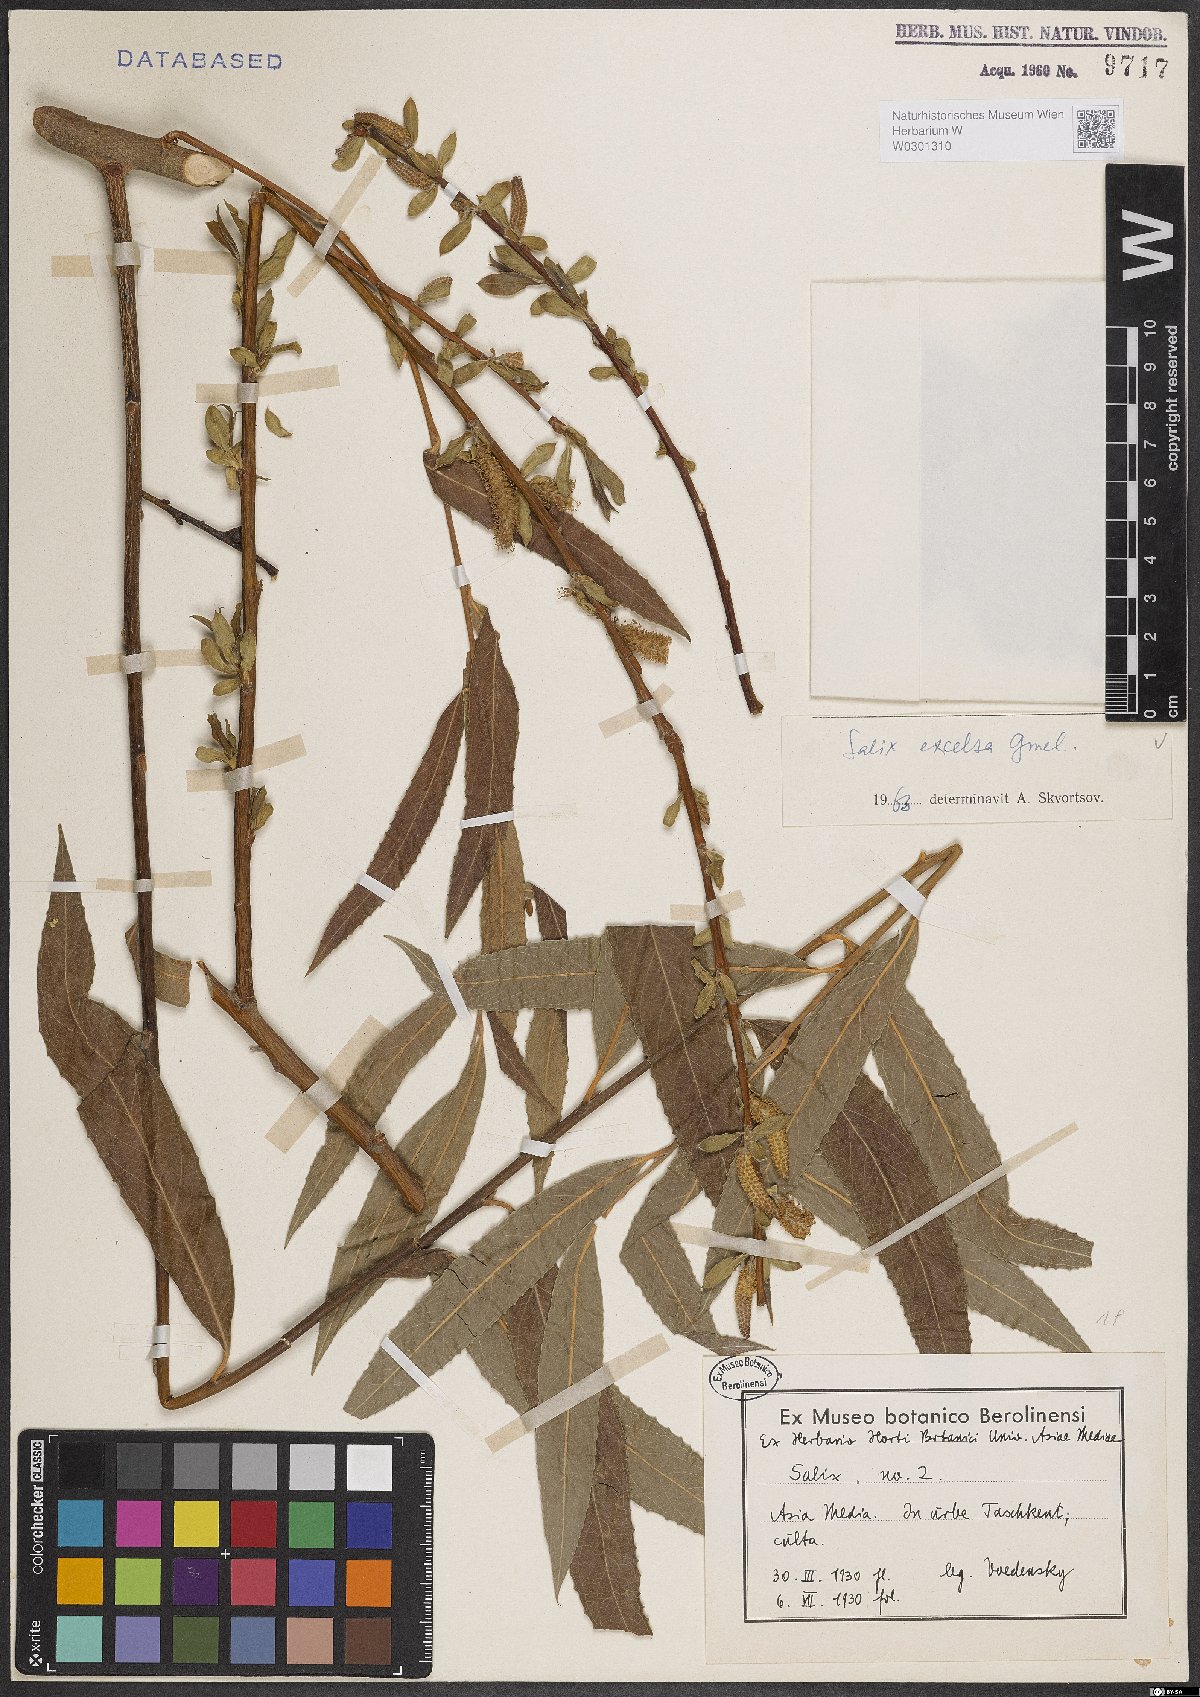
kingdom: Plantae
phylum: Tracheophyta
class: Magnoliopsida
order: Malpighiales
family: Salicaceae
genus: Salix
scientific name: Salix excelsa
